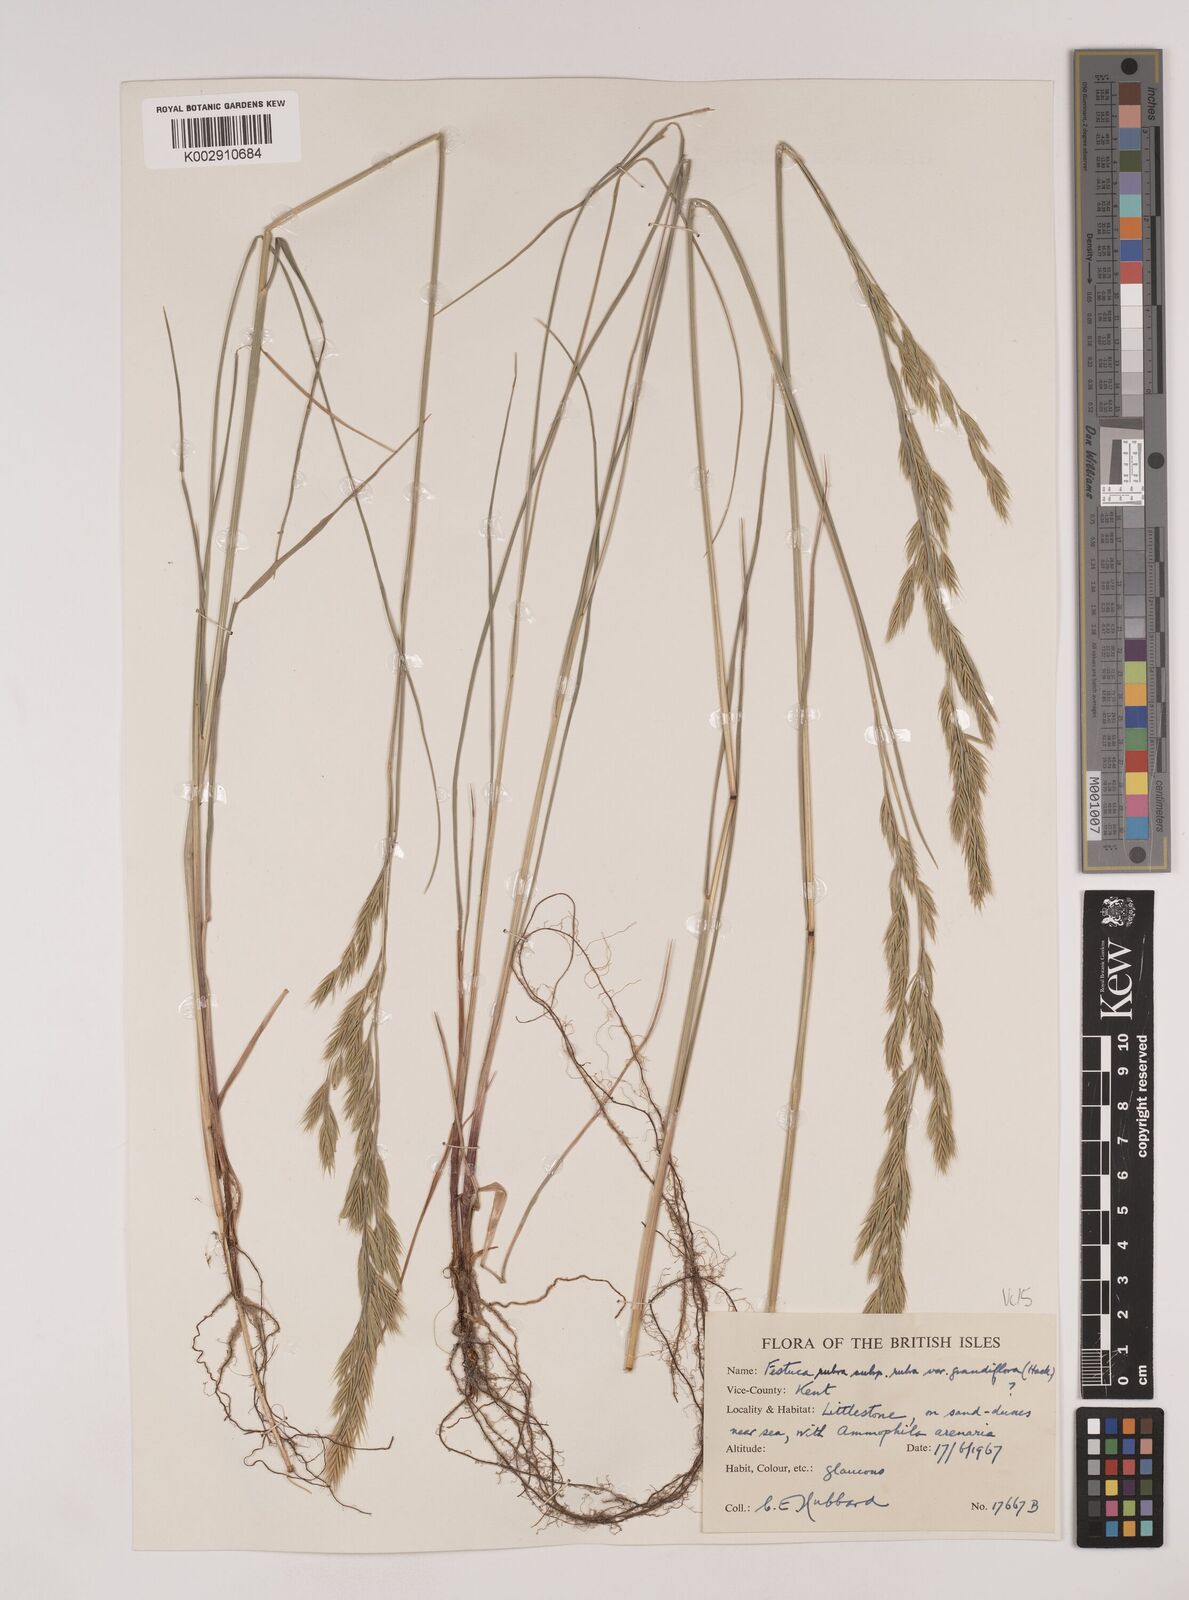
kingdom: Plantae
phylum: Tracheophyta
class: Liliopsida
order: Poales
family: Poaceae
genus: Festuca
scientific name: Festuca rubra
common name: Red fescue
